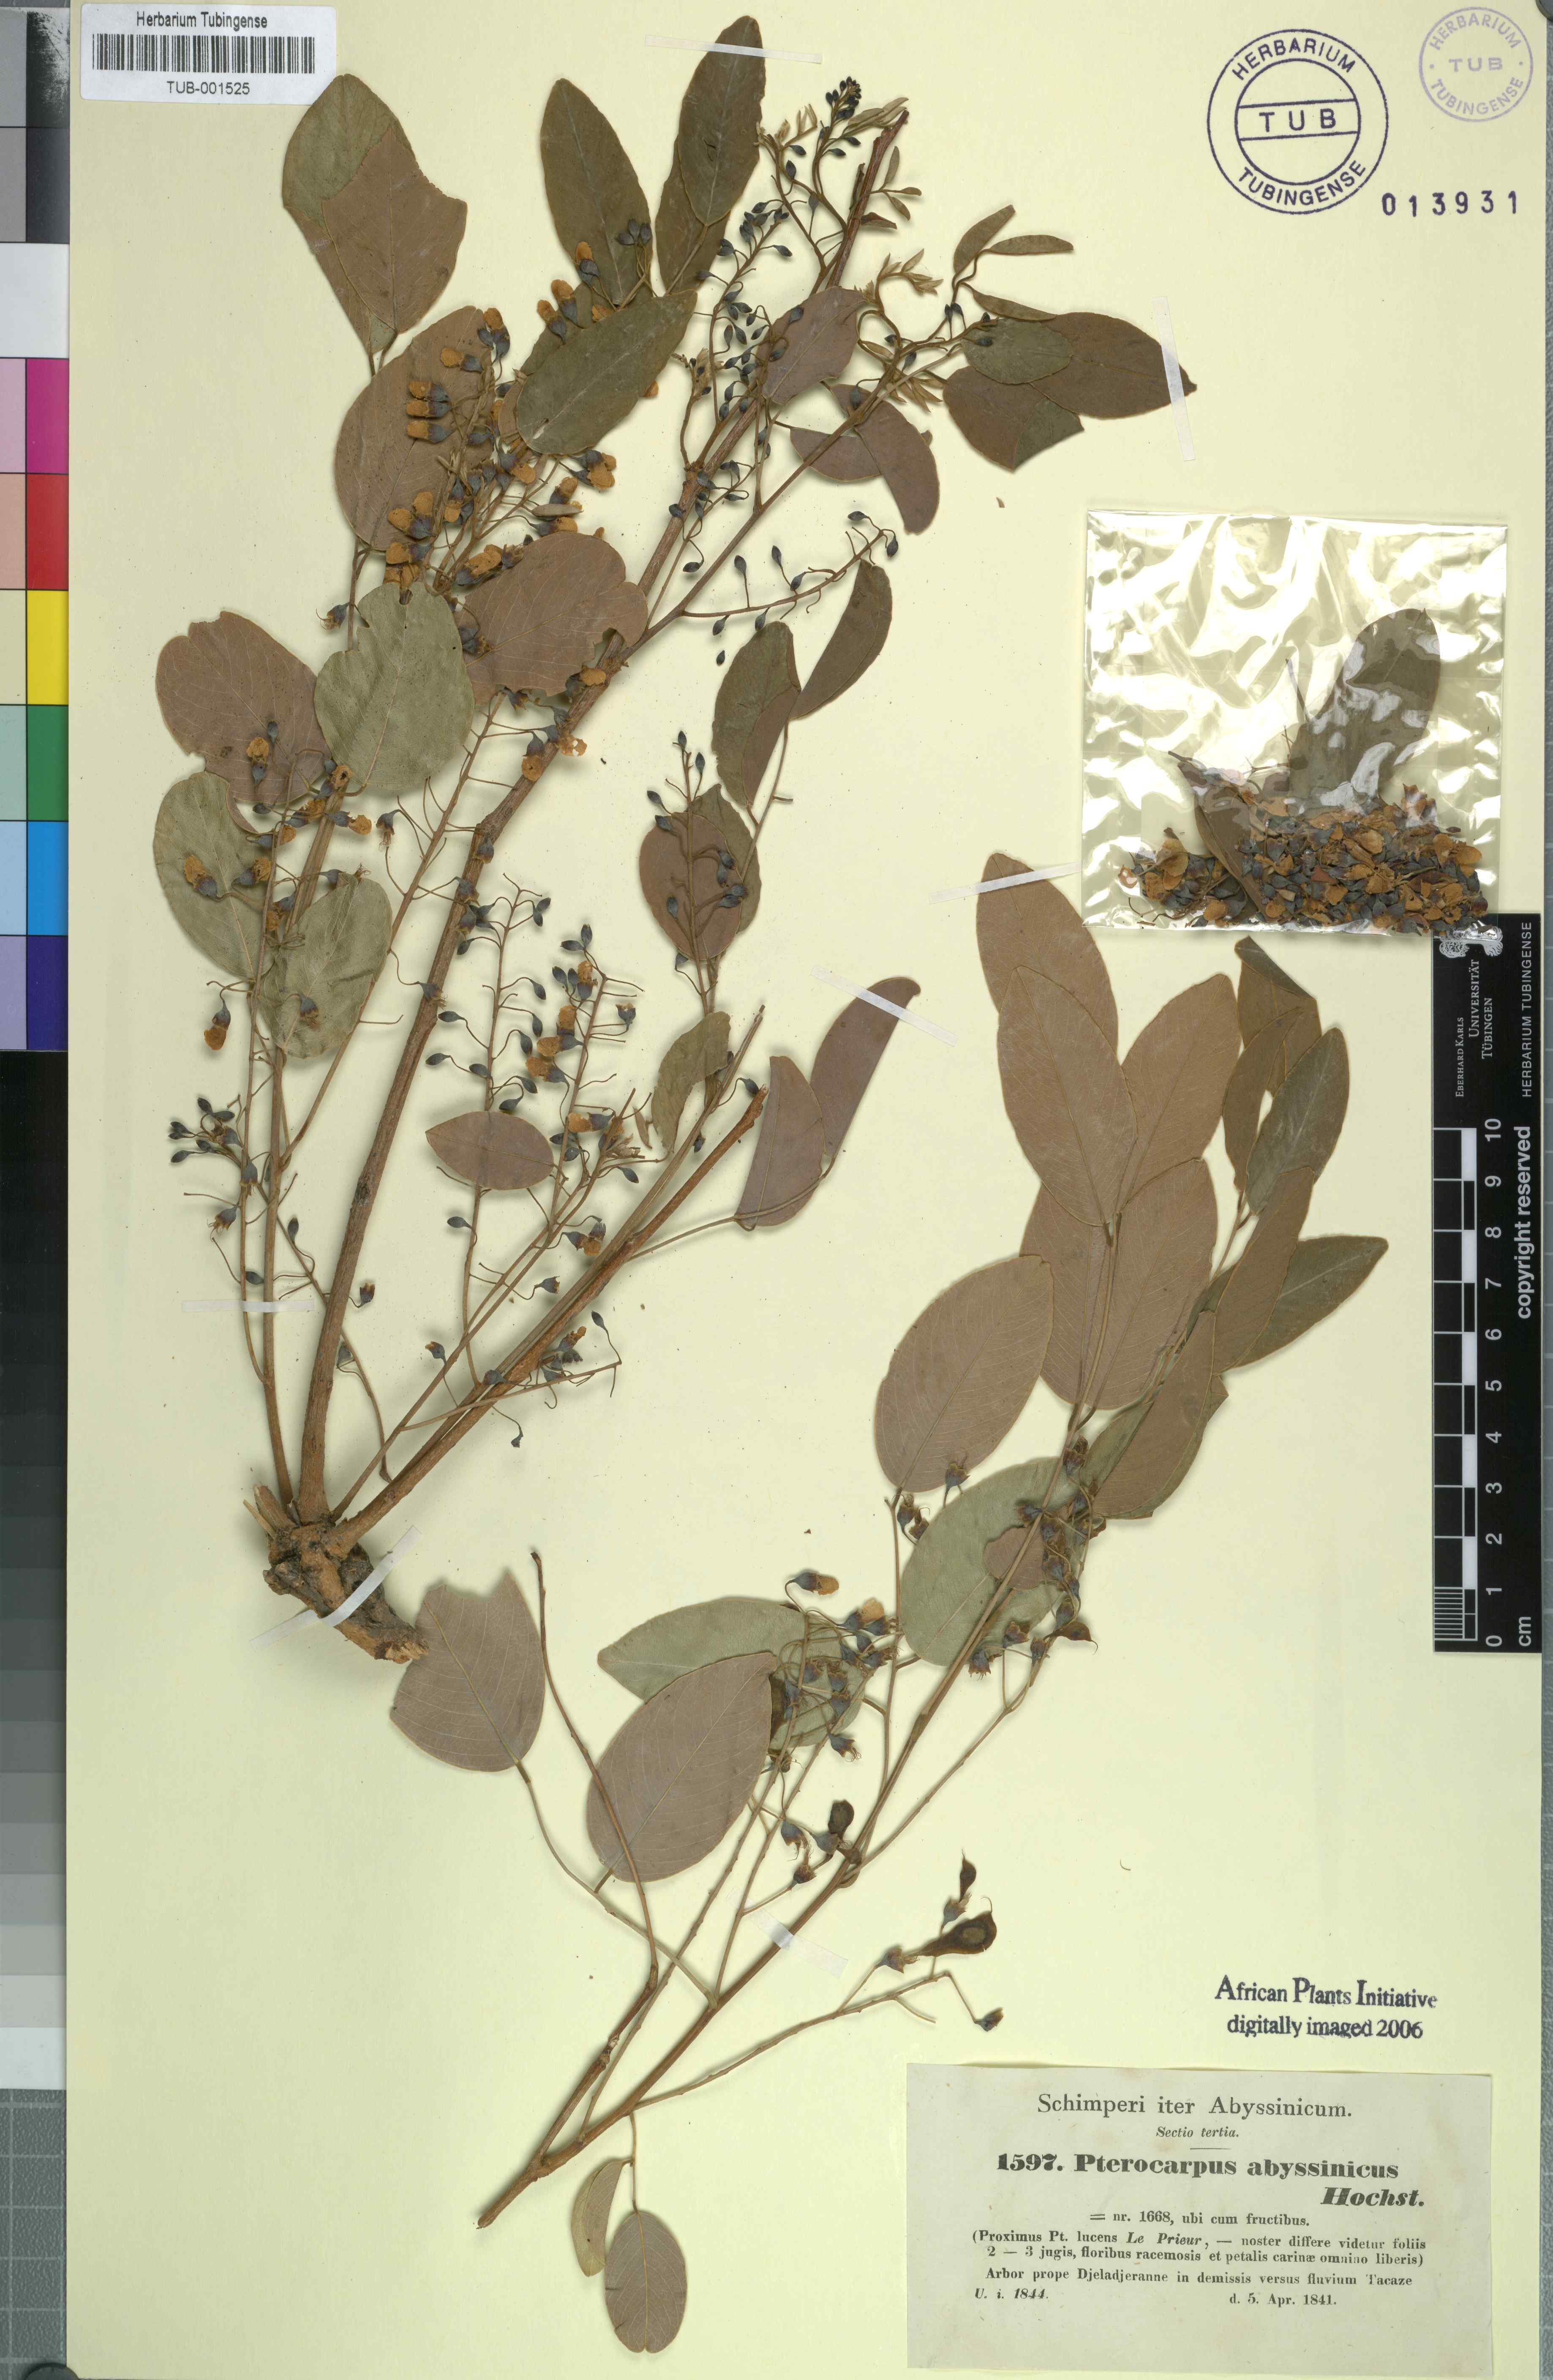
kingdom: Plantae
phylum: Tracheophyta
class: Magnoliopsida
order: Fabales
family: Fabaceae
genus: Pterocarpus
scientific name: Pterocarpus lucens
